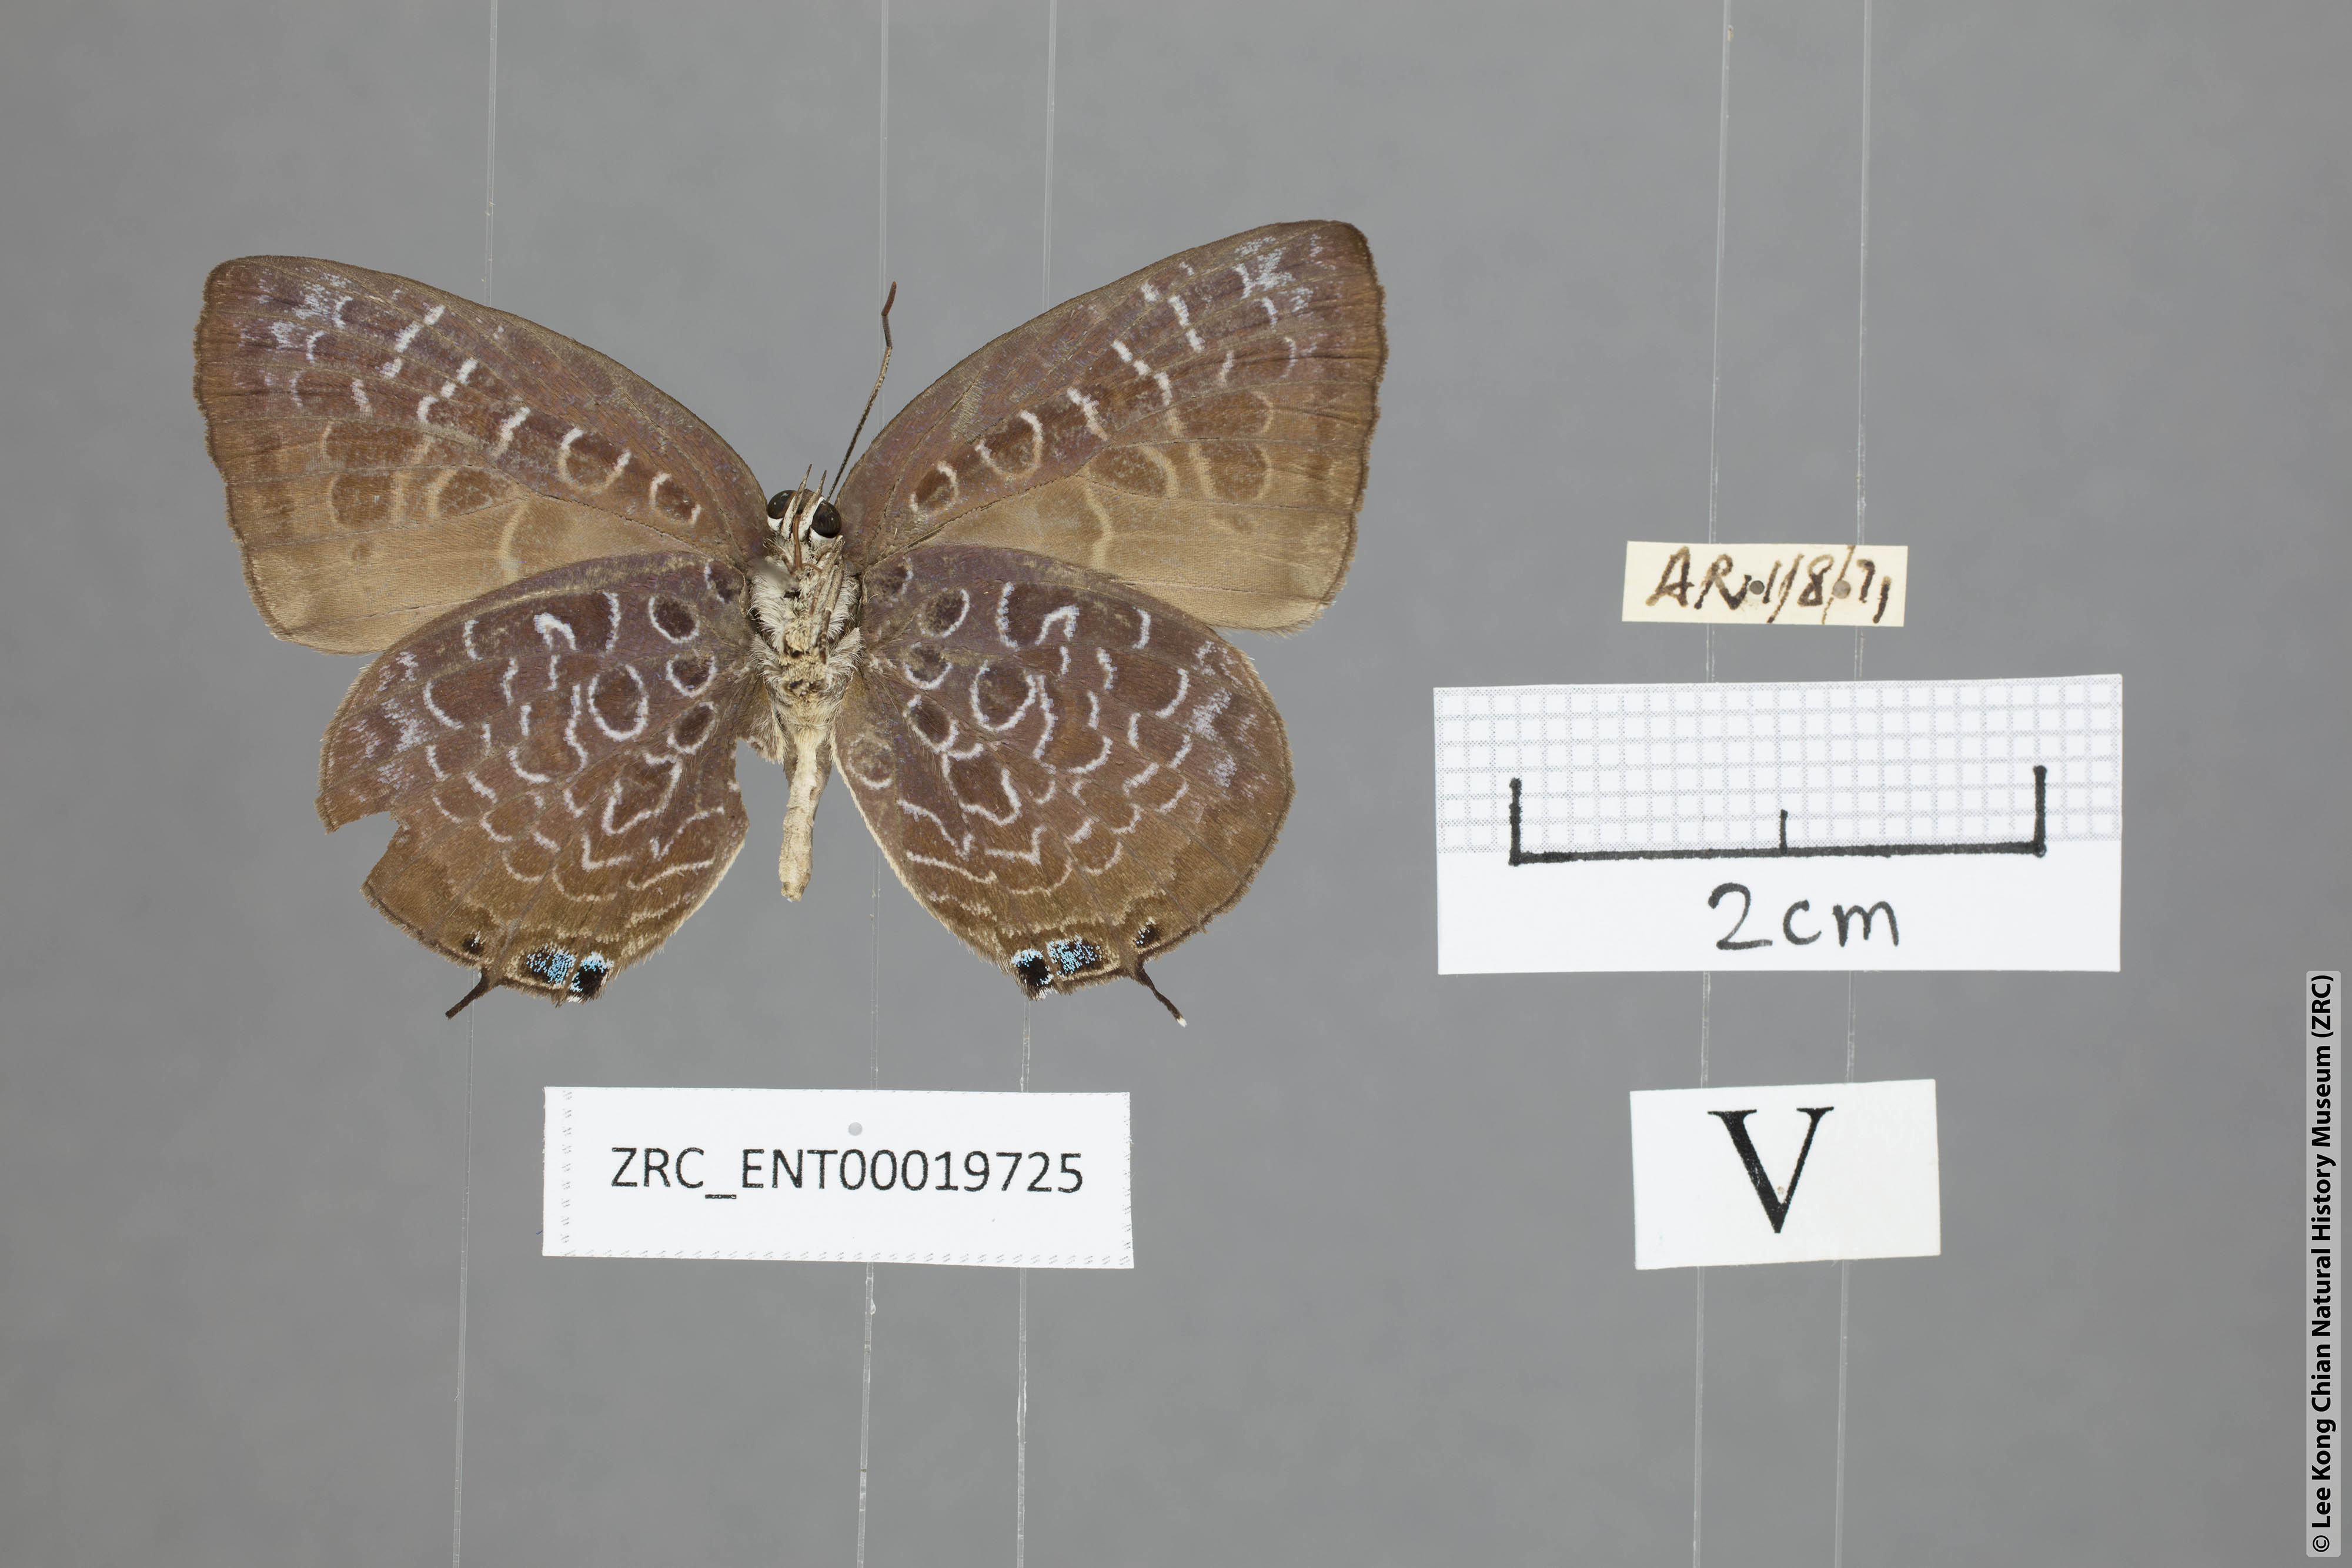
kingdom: Animalia
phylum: Arthropoda
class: Insecta
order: Lepidoptera
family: Lycaenidae
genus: Arhopala
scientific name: Arhopala myrzala
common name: Malayan oakblue
